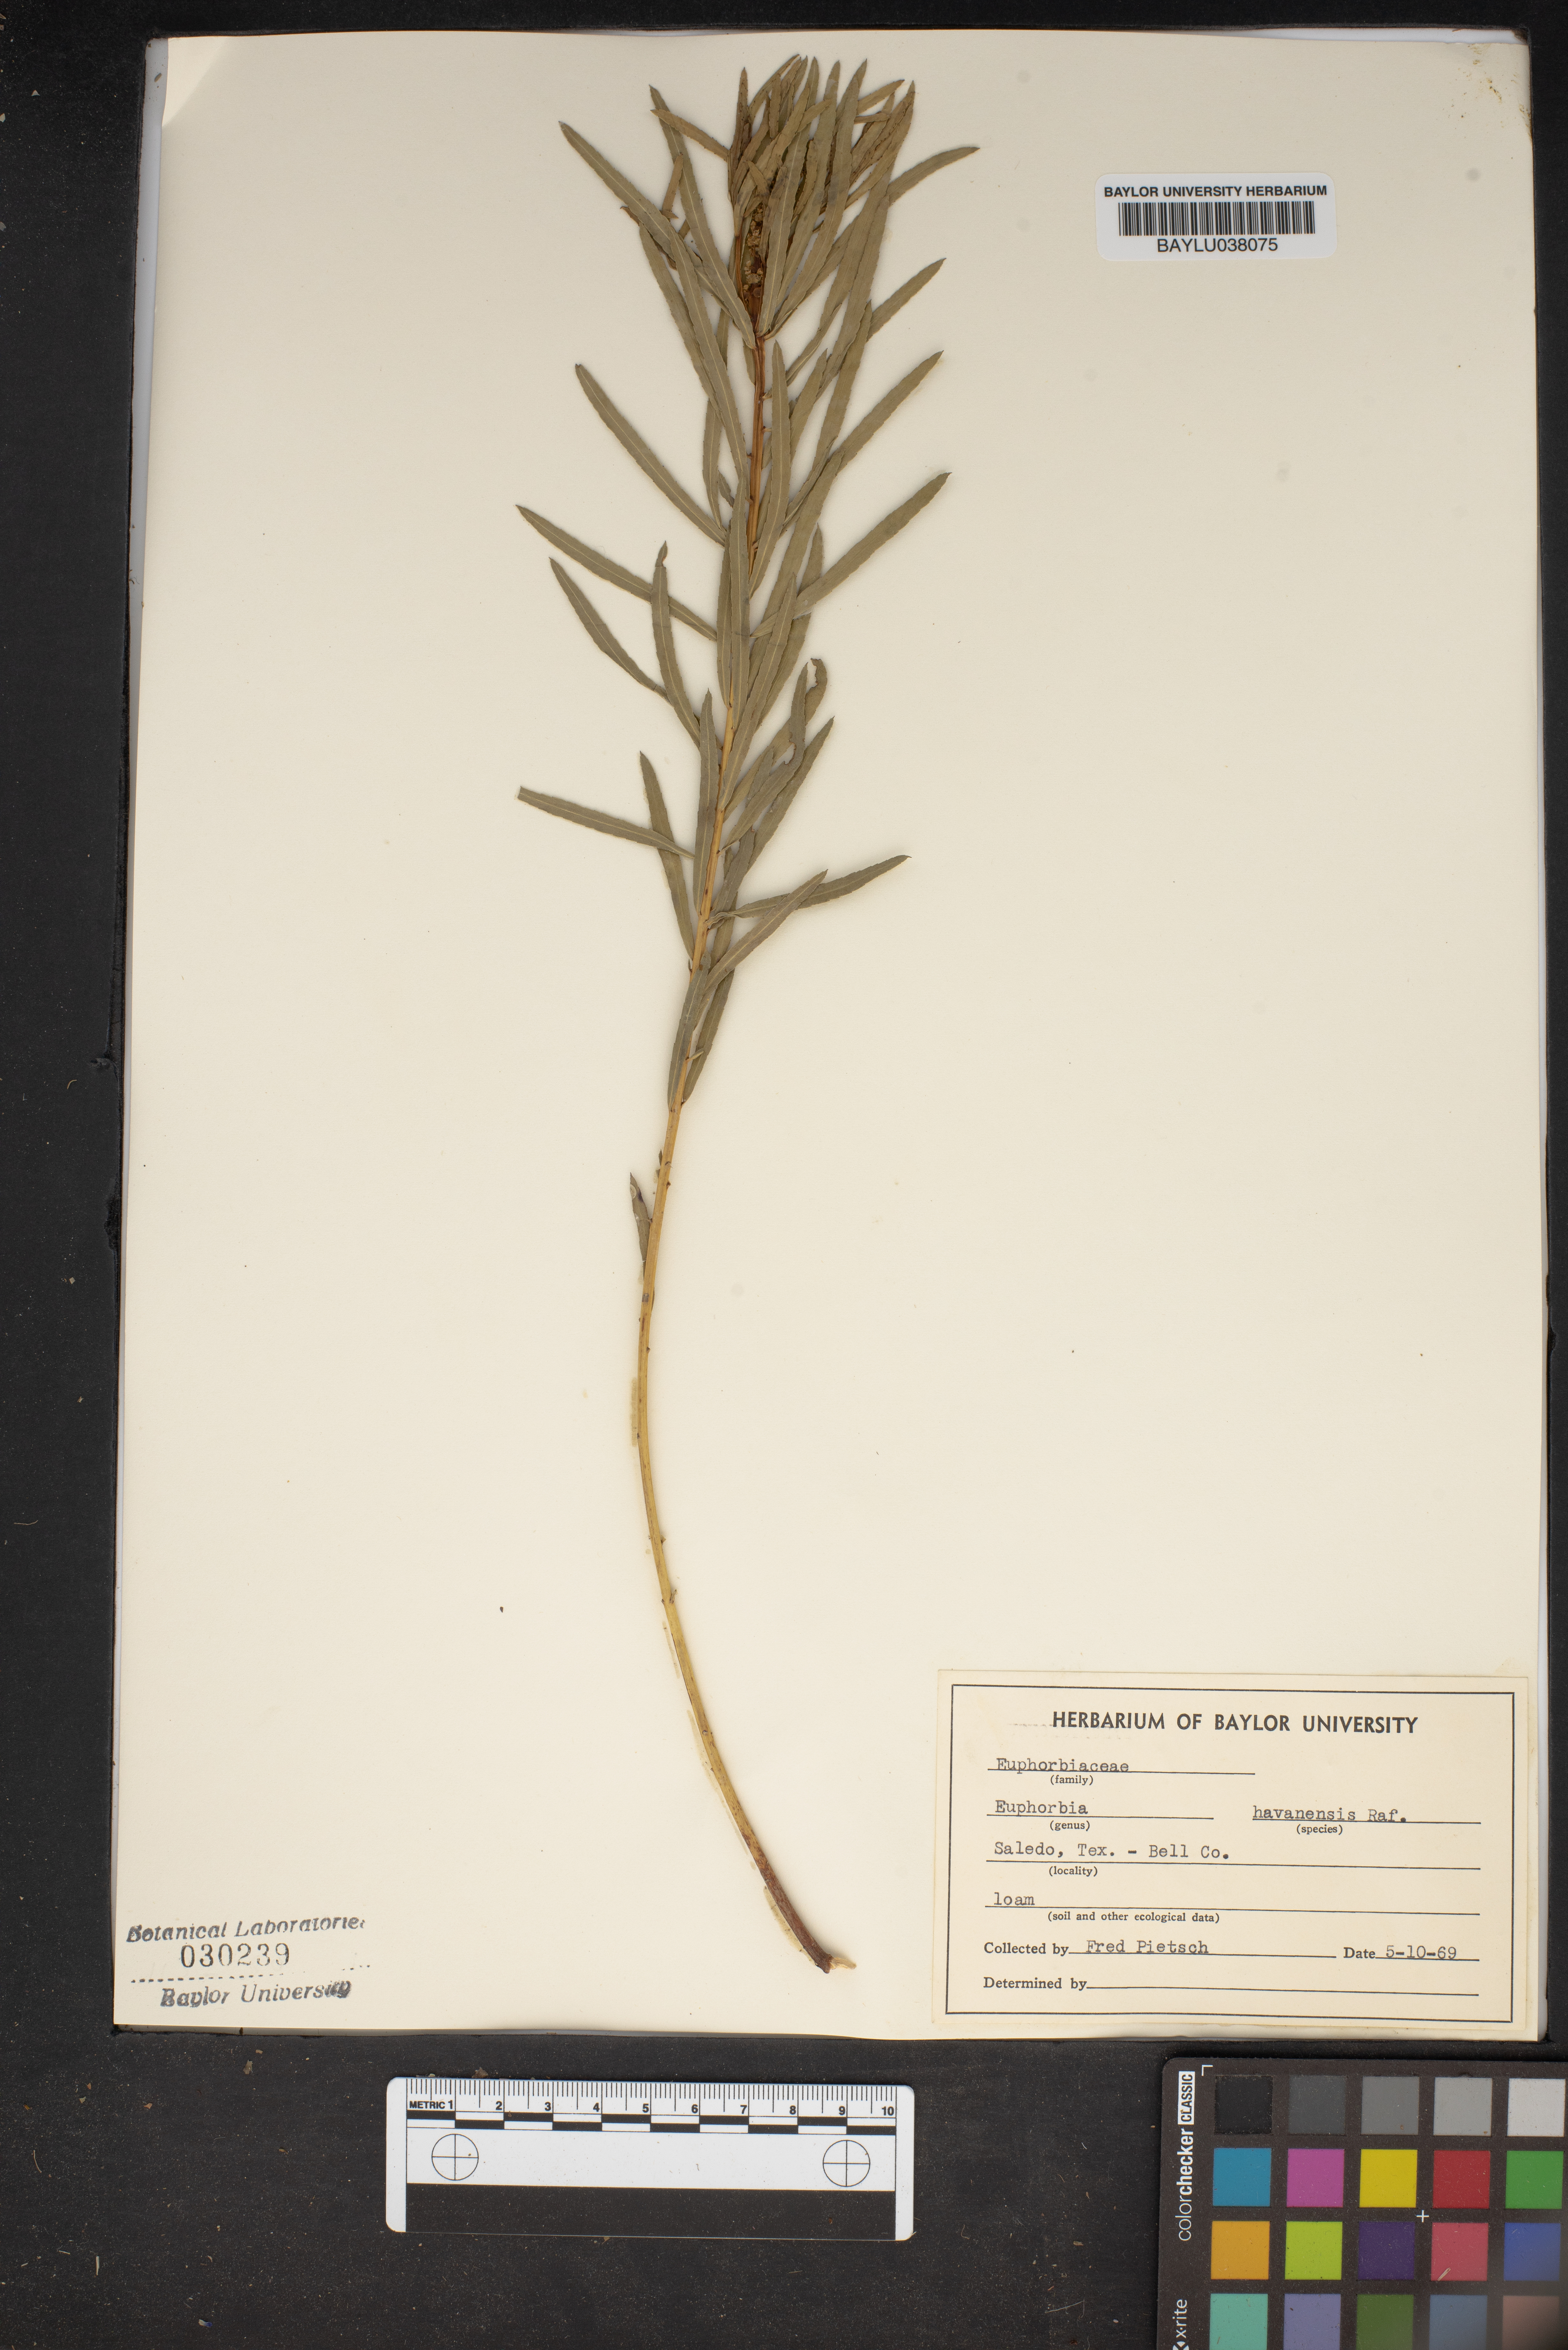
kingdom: Plantae
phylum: Tracheophyta
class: Magnoliopsida
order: Malpighiales
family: Euphorbiaceae
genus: Euphorbia
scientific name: Euphorbia havanensis
